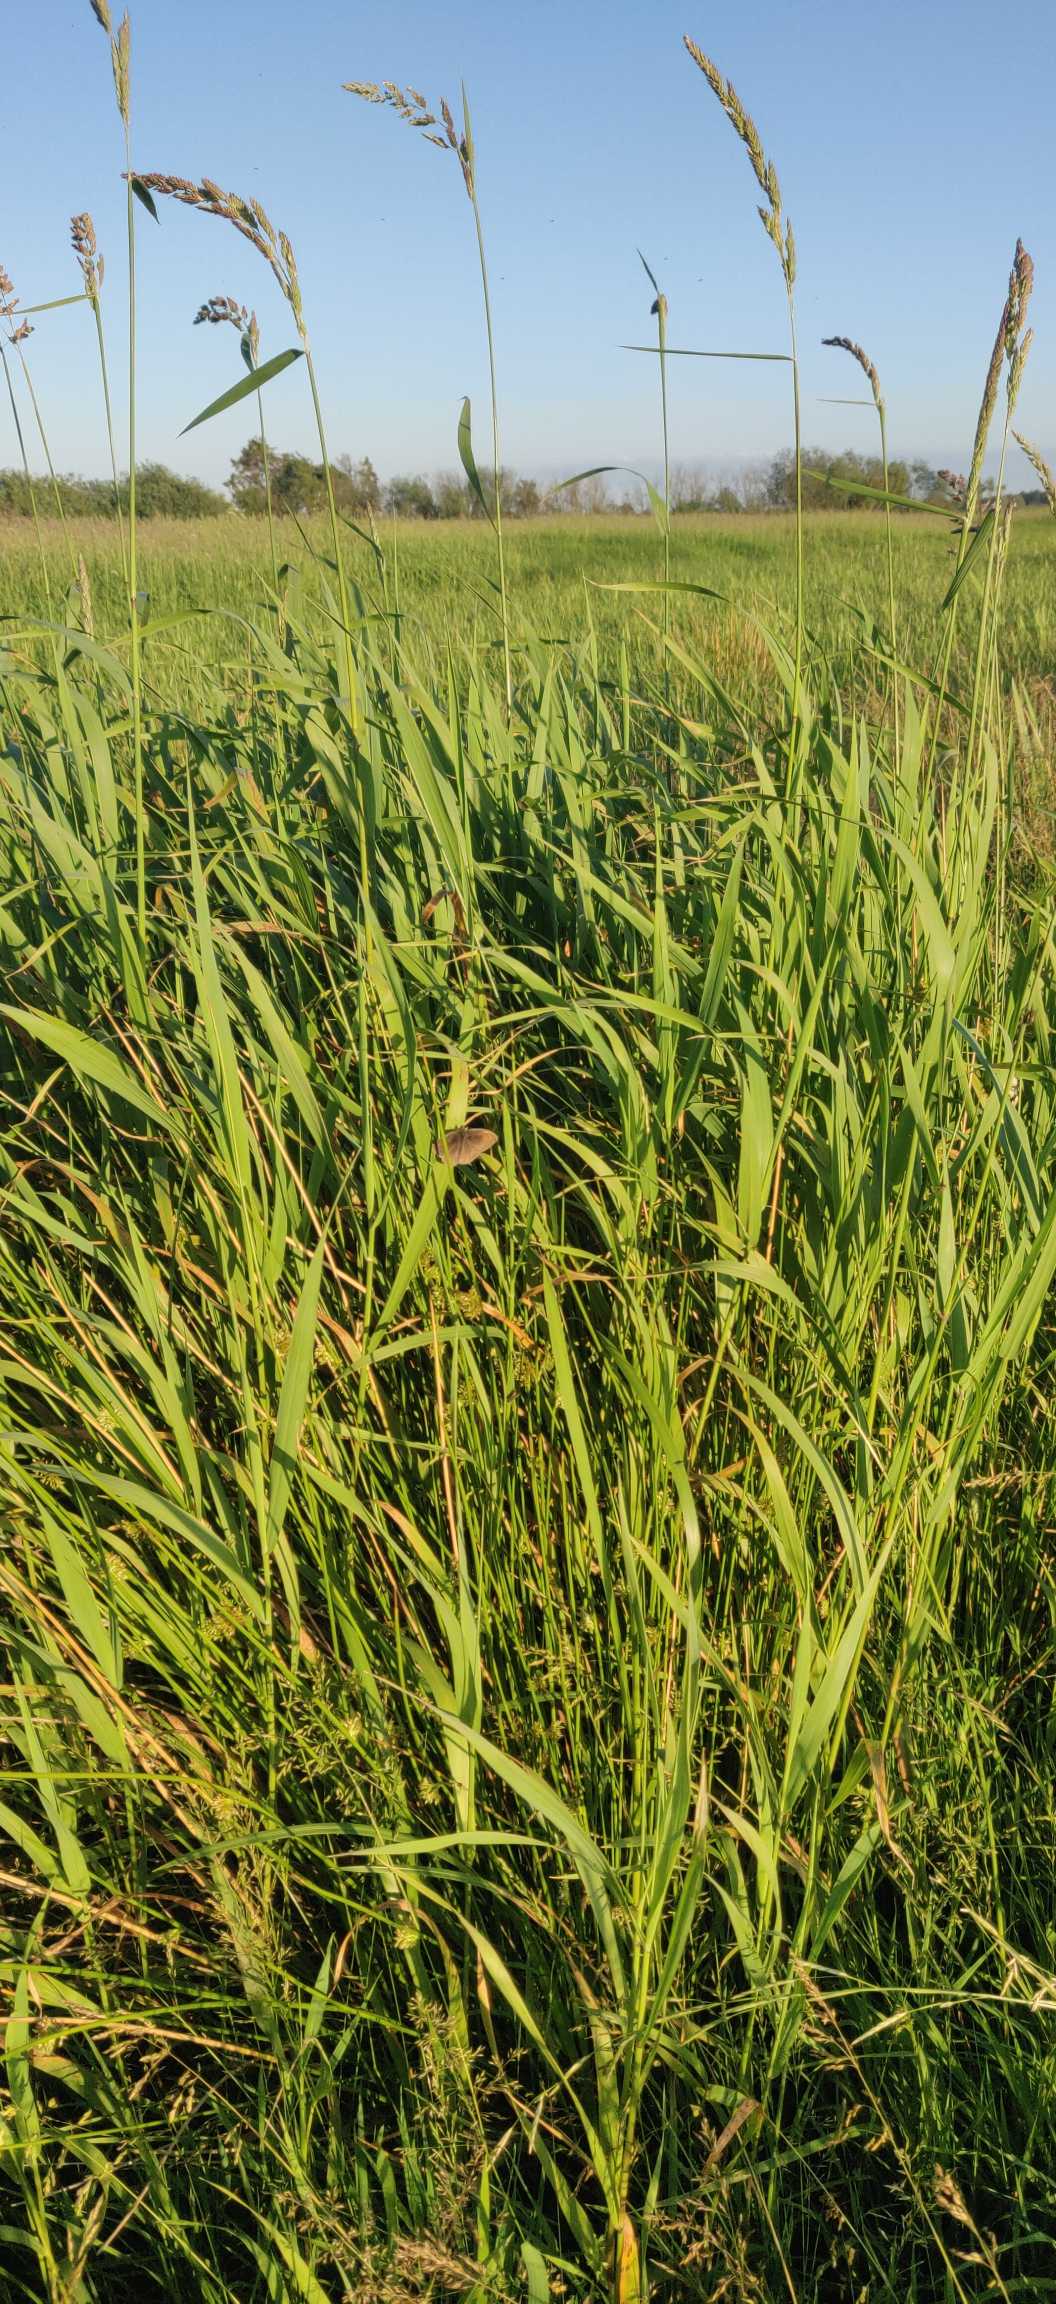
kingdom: Animalia
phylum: Arthropoda
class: Insecta
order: Lepidoptera
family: Nymphalidae
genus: Maniola
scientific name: Maniola jurtina
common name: Græsrandøje
